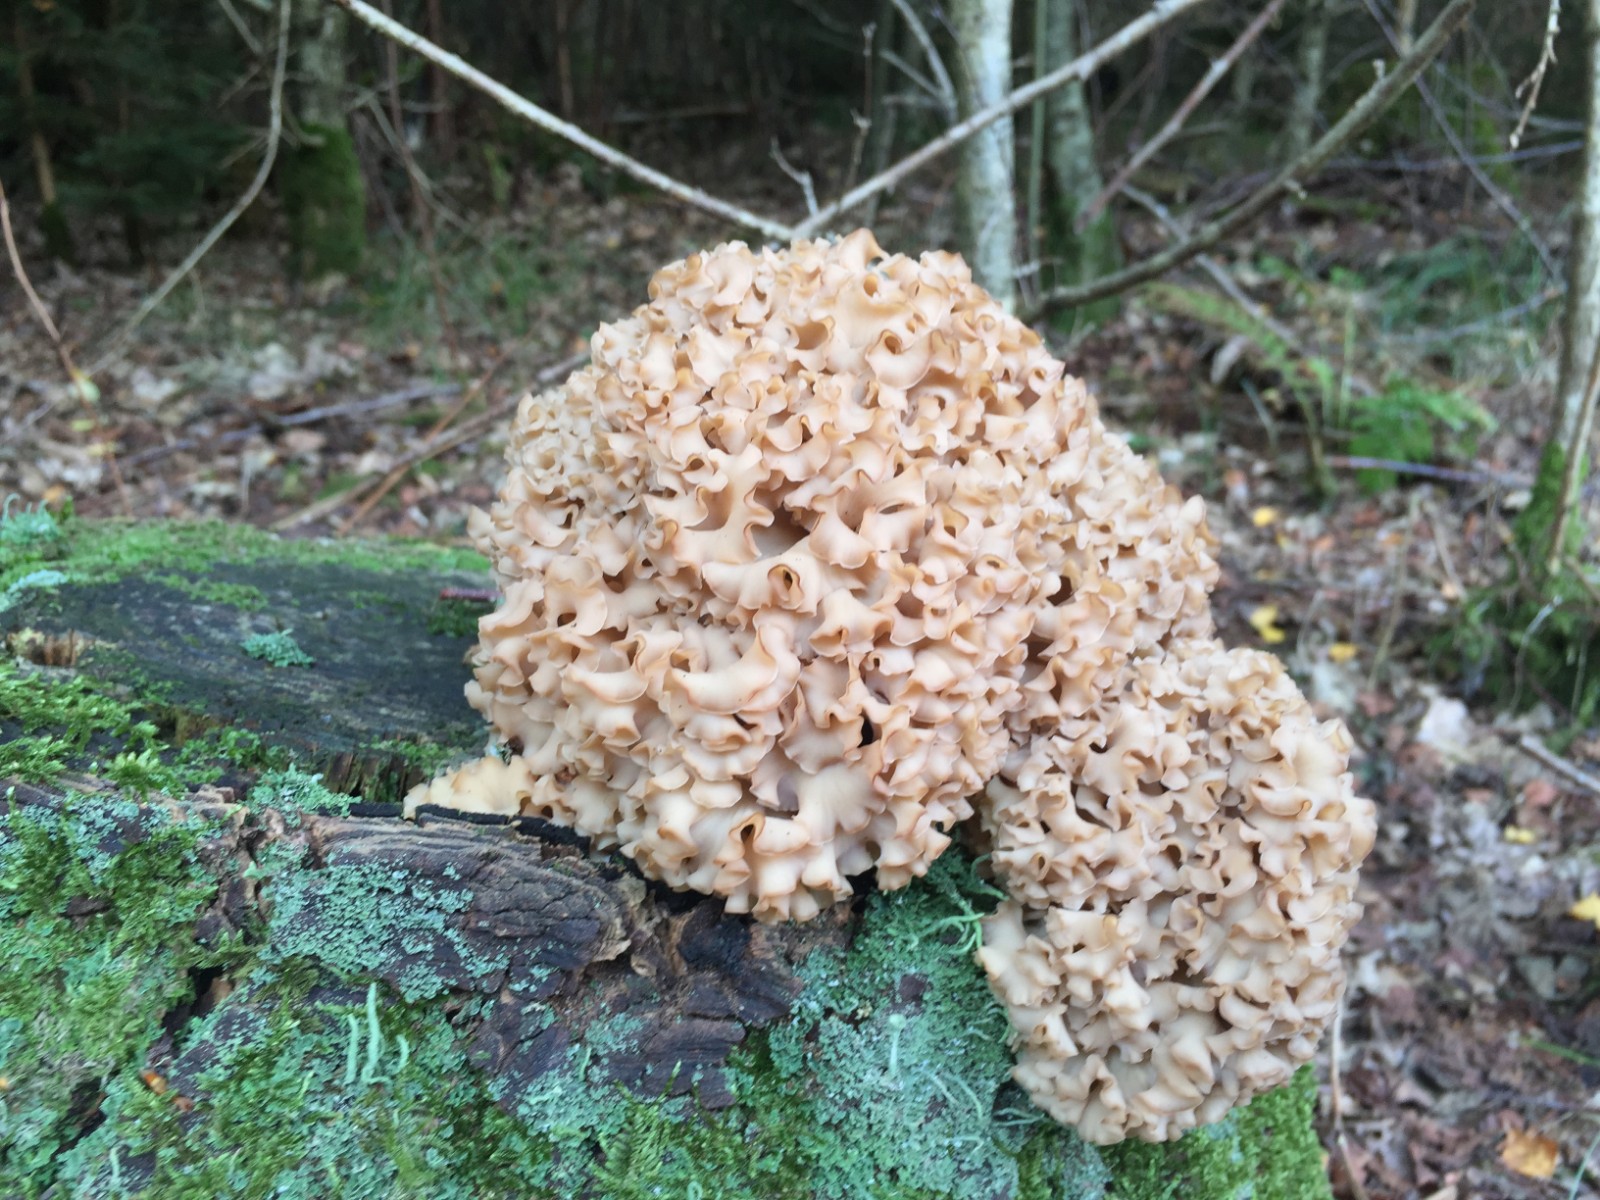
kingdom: Fungi
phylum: Basidiomycota
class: Agaricomycetes
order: Polyporales
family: Sparassidaceae
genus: Sparassis
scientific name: Sparassis crispa
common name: kruset blomkålssvamp
